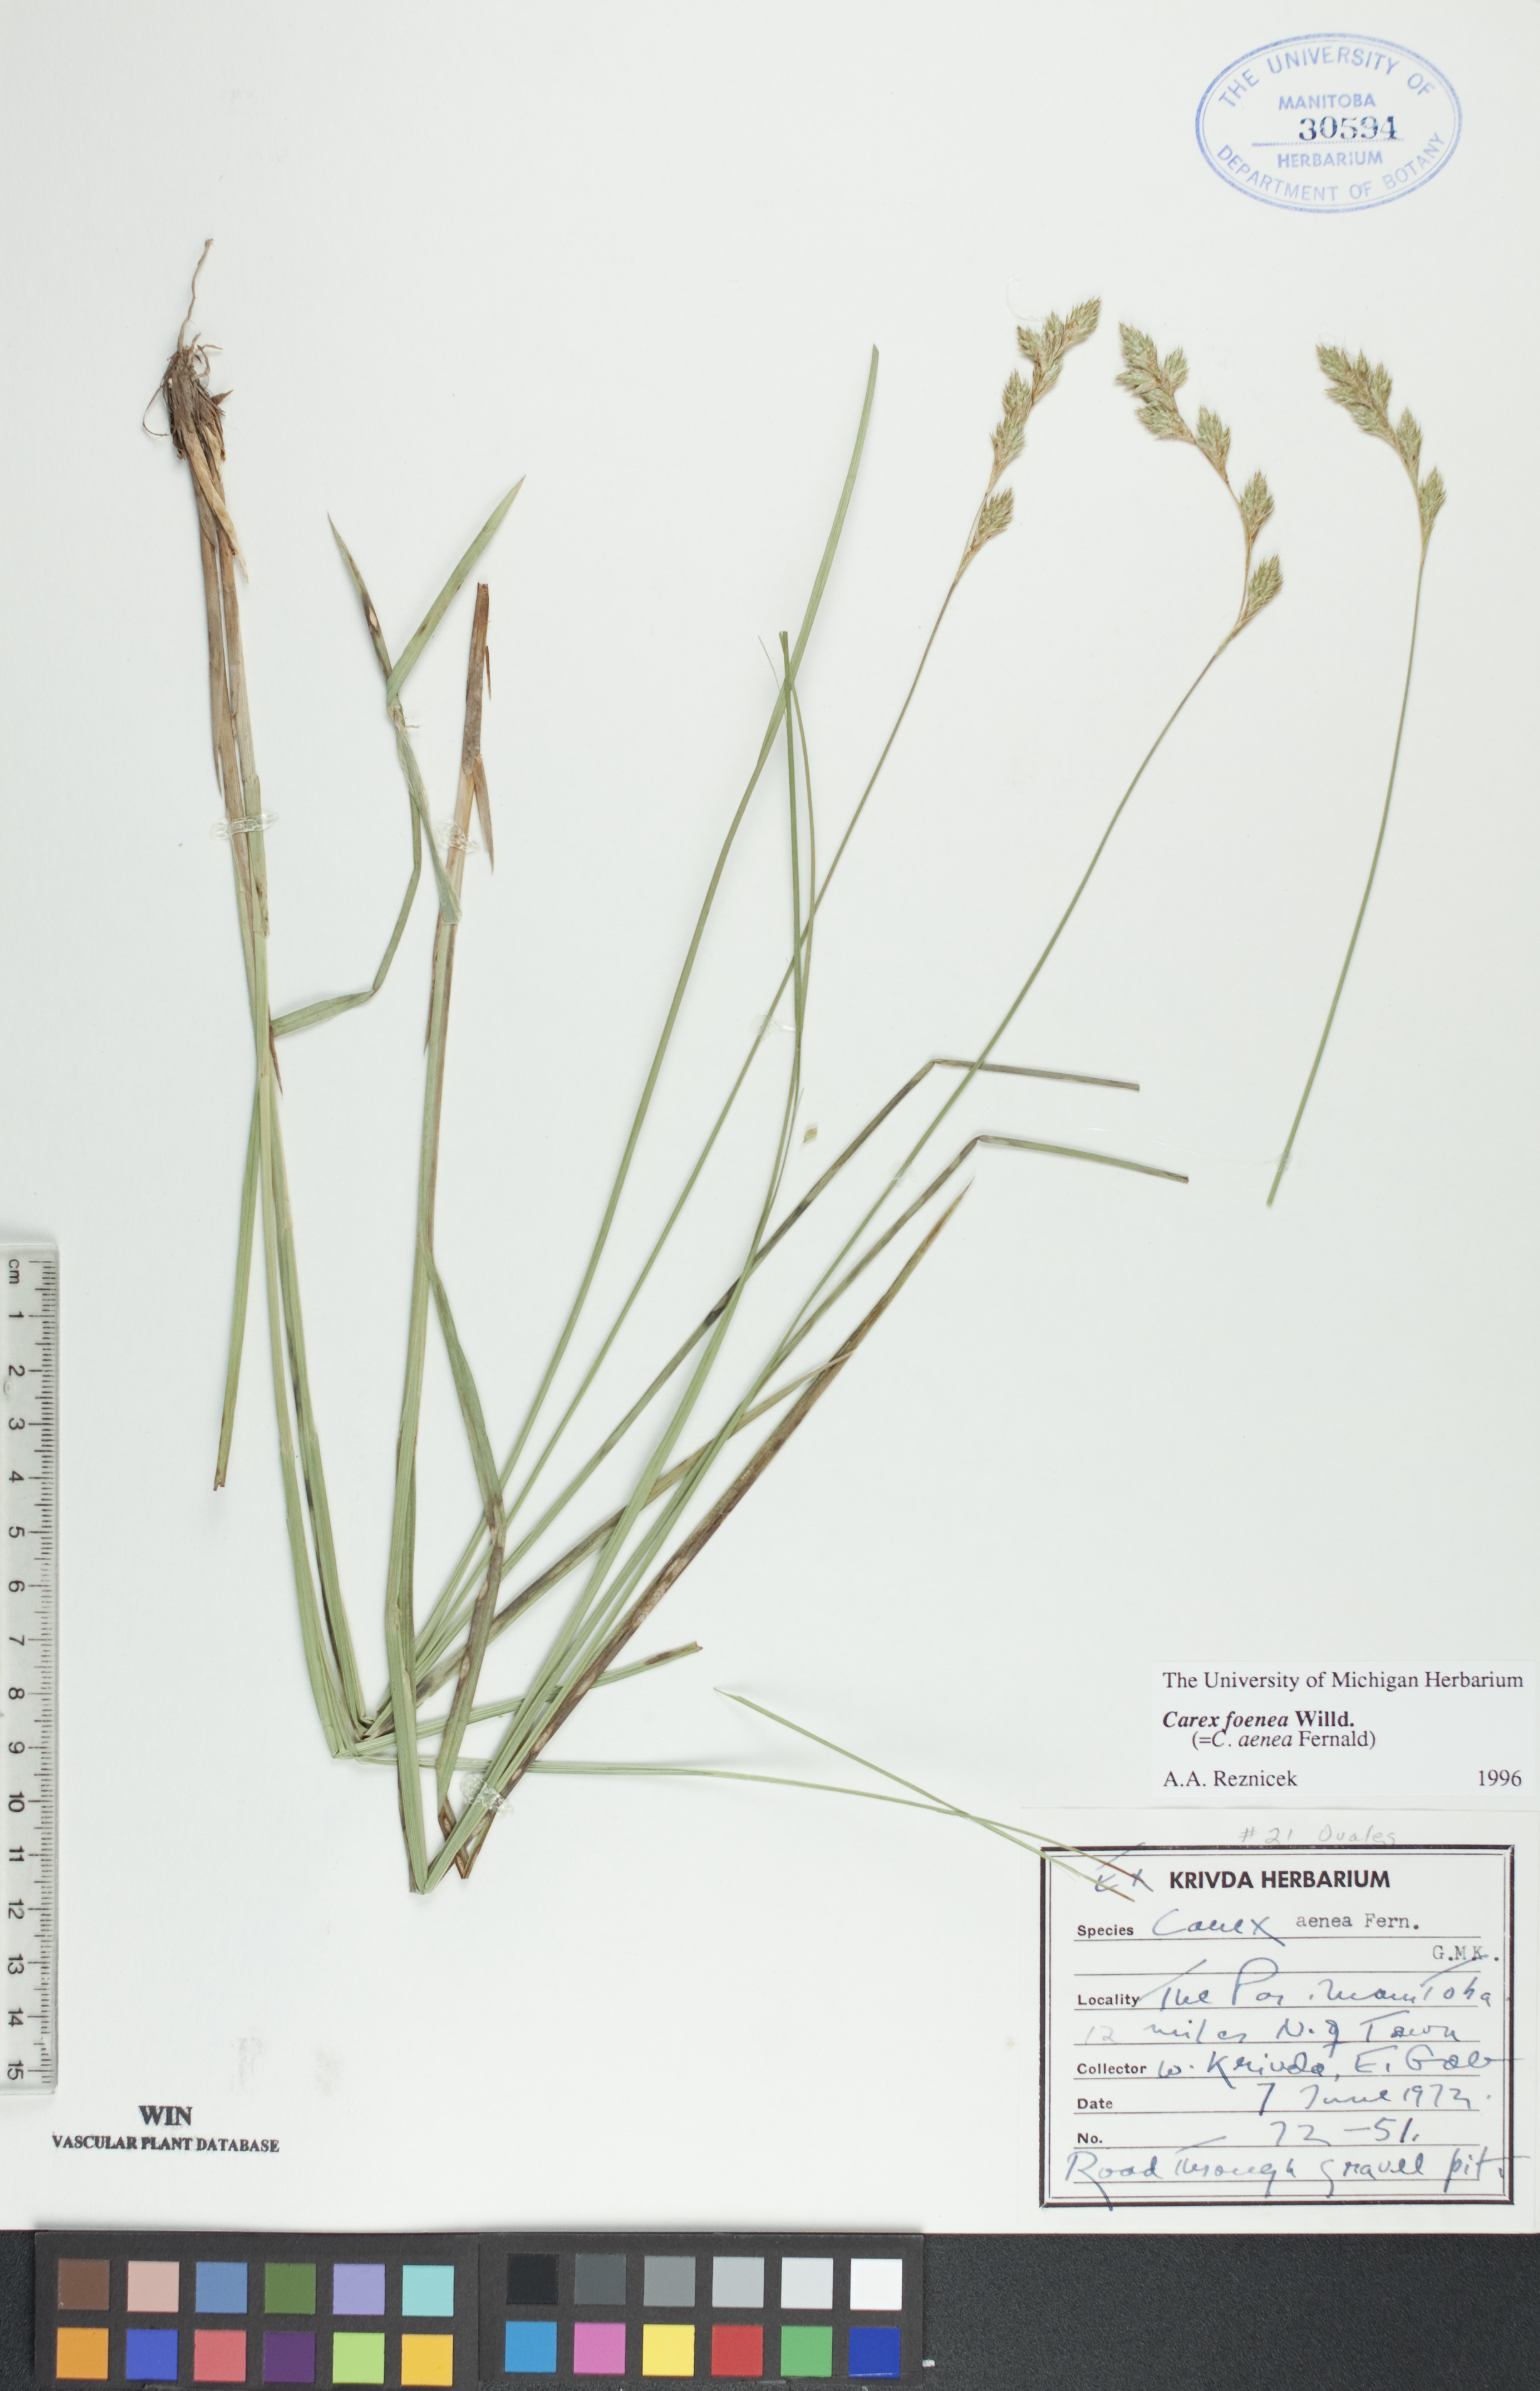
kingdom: Plantae
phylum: Tracheophyta
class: Liliopsida
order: Poales
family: Cyperaceae
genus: Carex
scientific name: Carex foenea
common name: Bronze sedge
